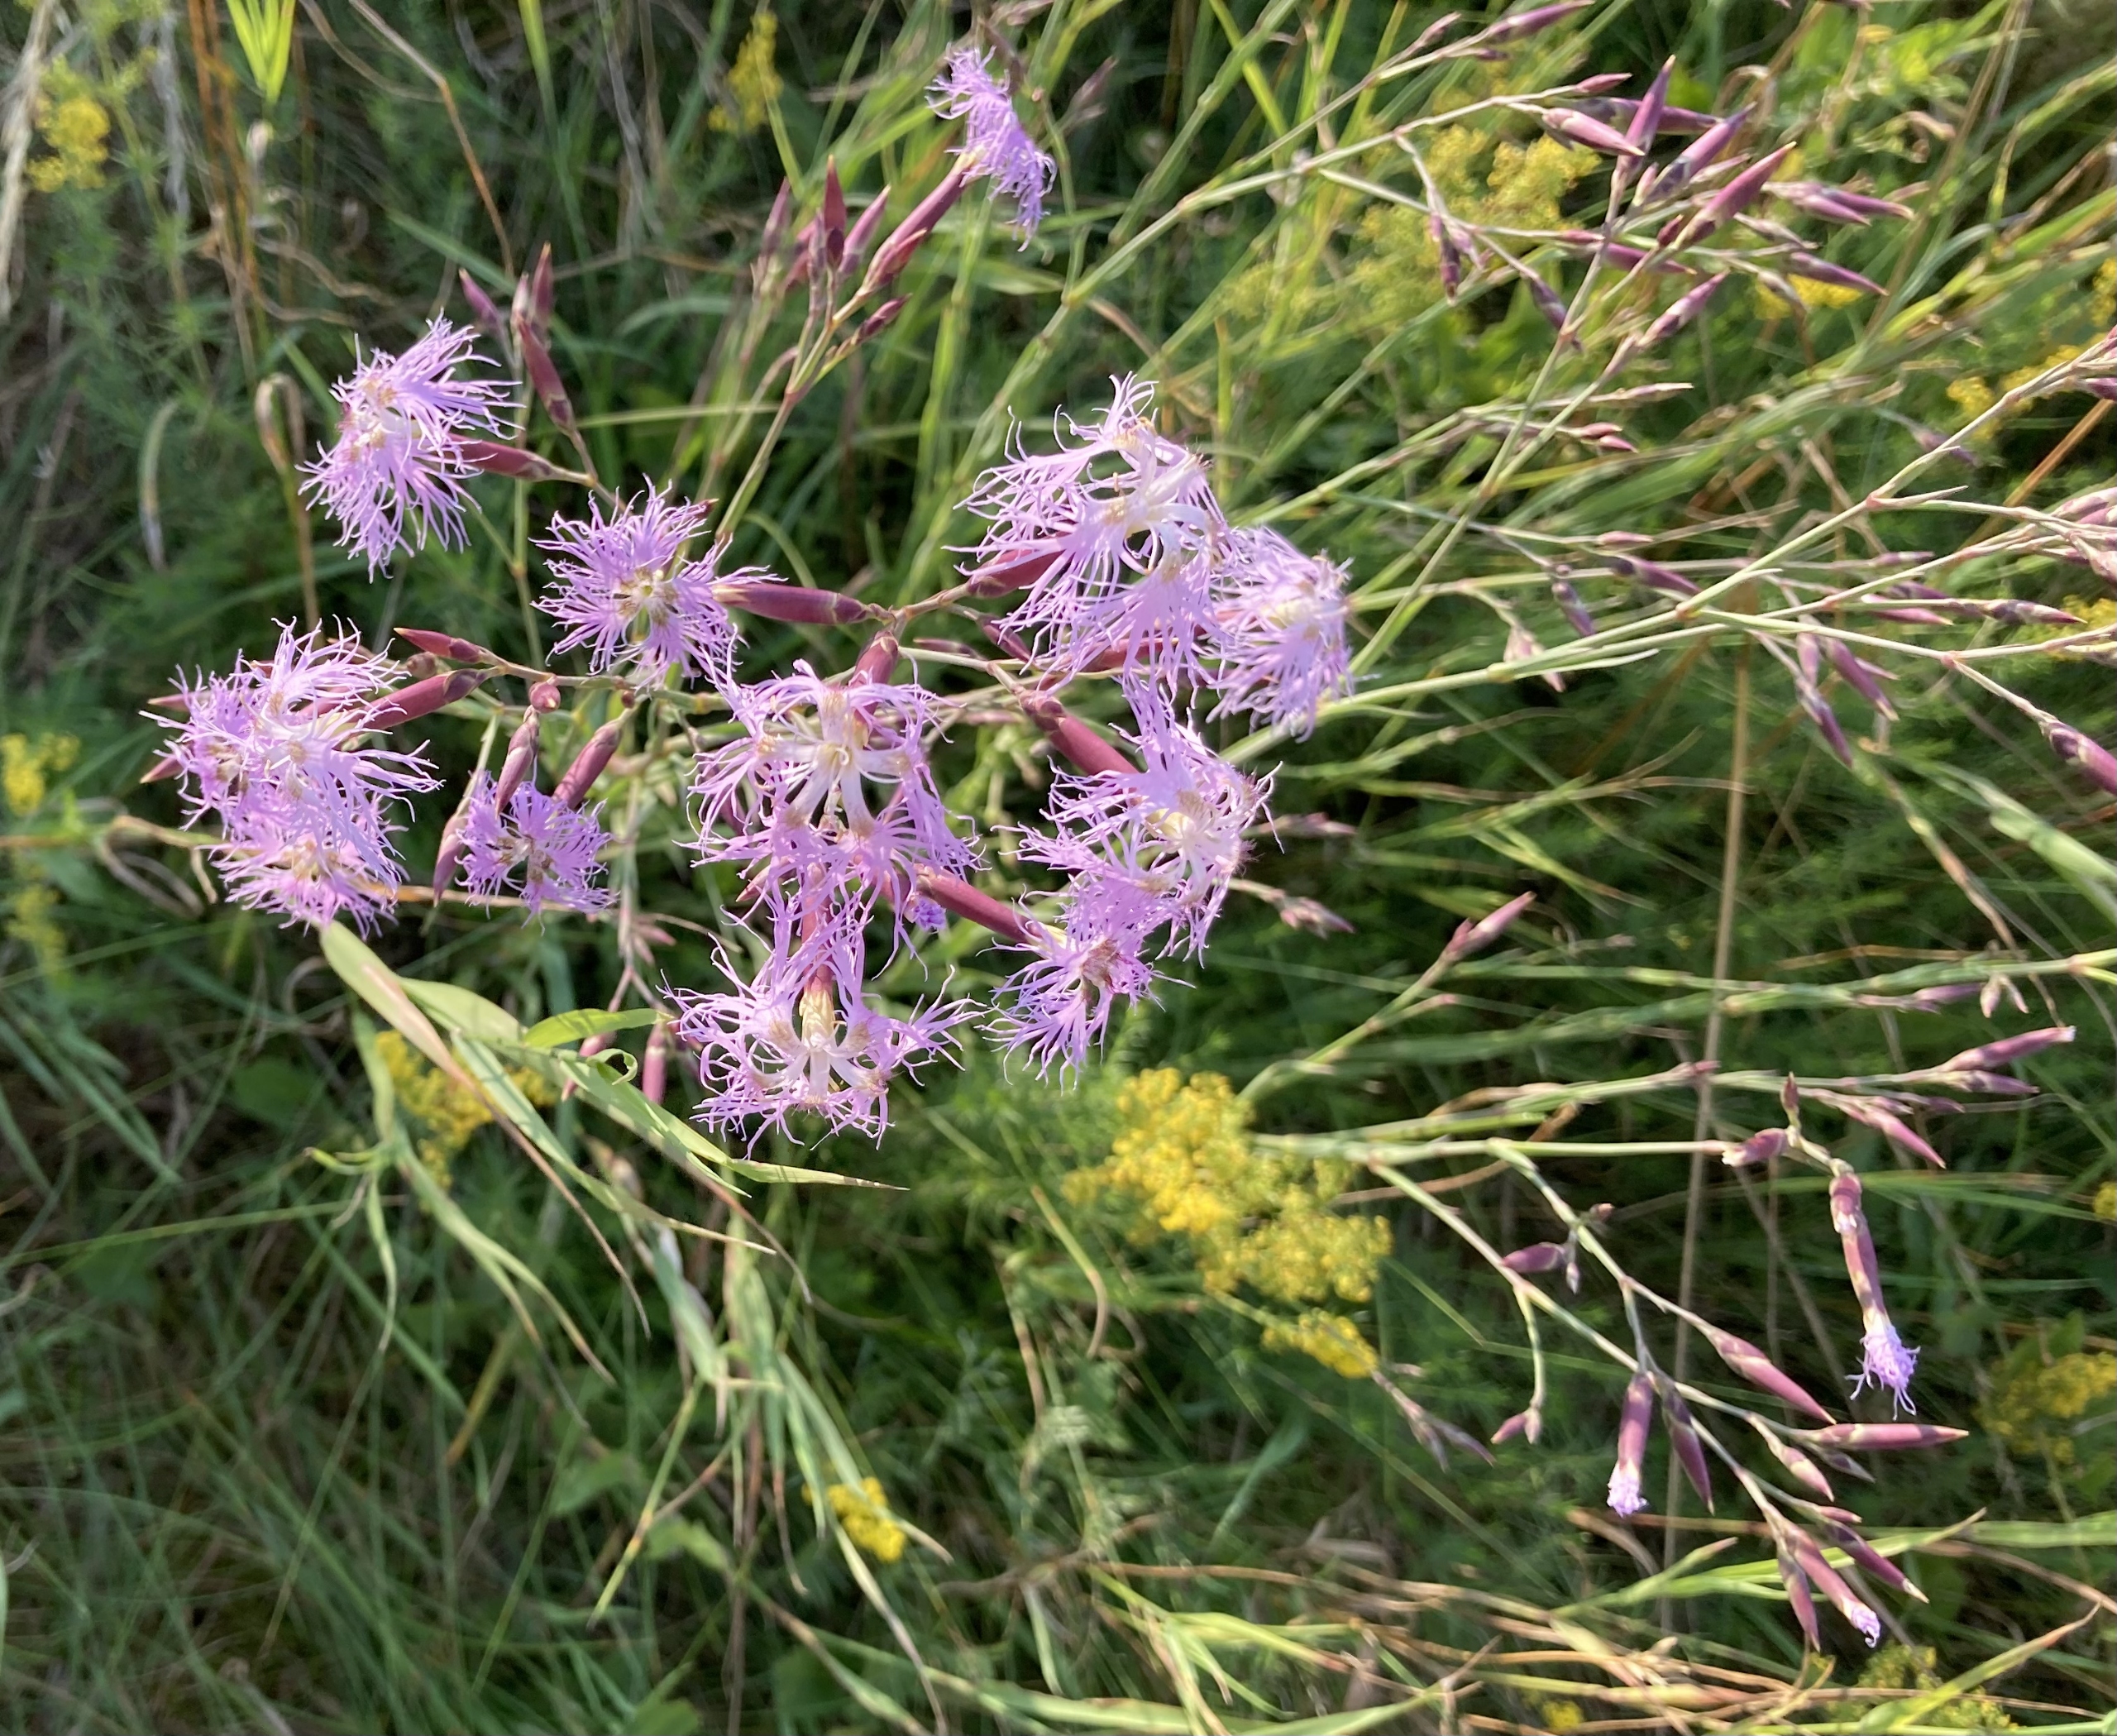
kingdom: Plantae
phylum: Tracheophyta
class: Magnoliopsida
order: Caryophyllales
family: Caryophyllaceae
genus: Dianthus
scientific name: Dianthus superbus
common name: Strand-nellike
